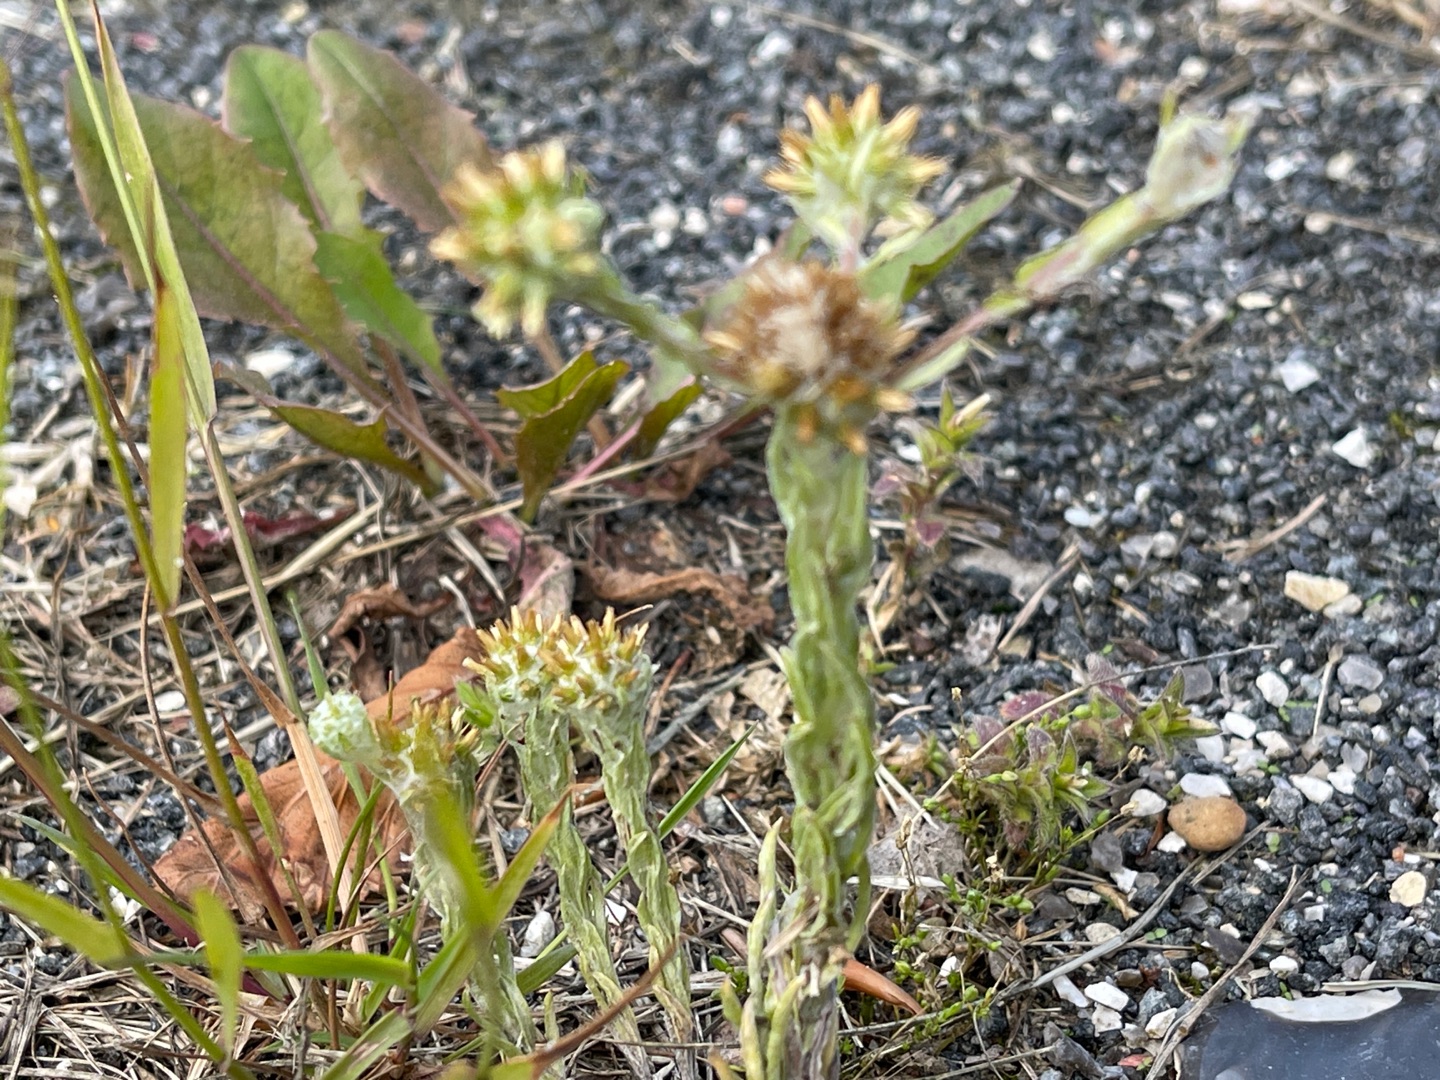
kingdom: Plantae
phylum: Tracheophyta
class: Magnoliopsida
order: Asterales
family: Asteraceae
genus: Filago
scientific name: Filago germanica
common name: Kugle-museurt
